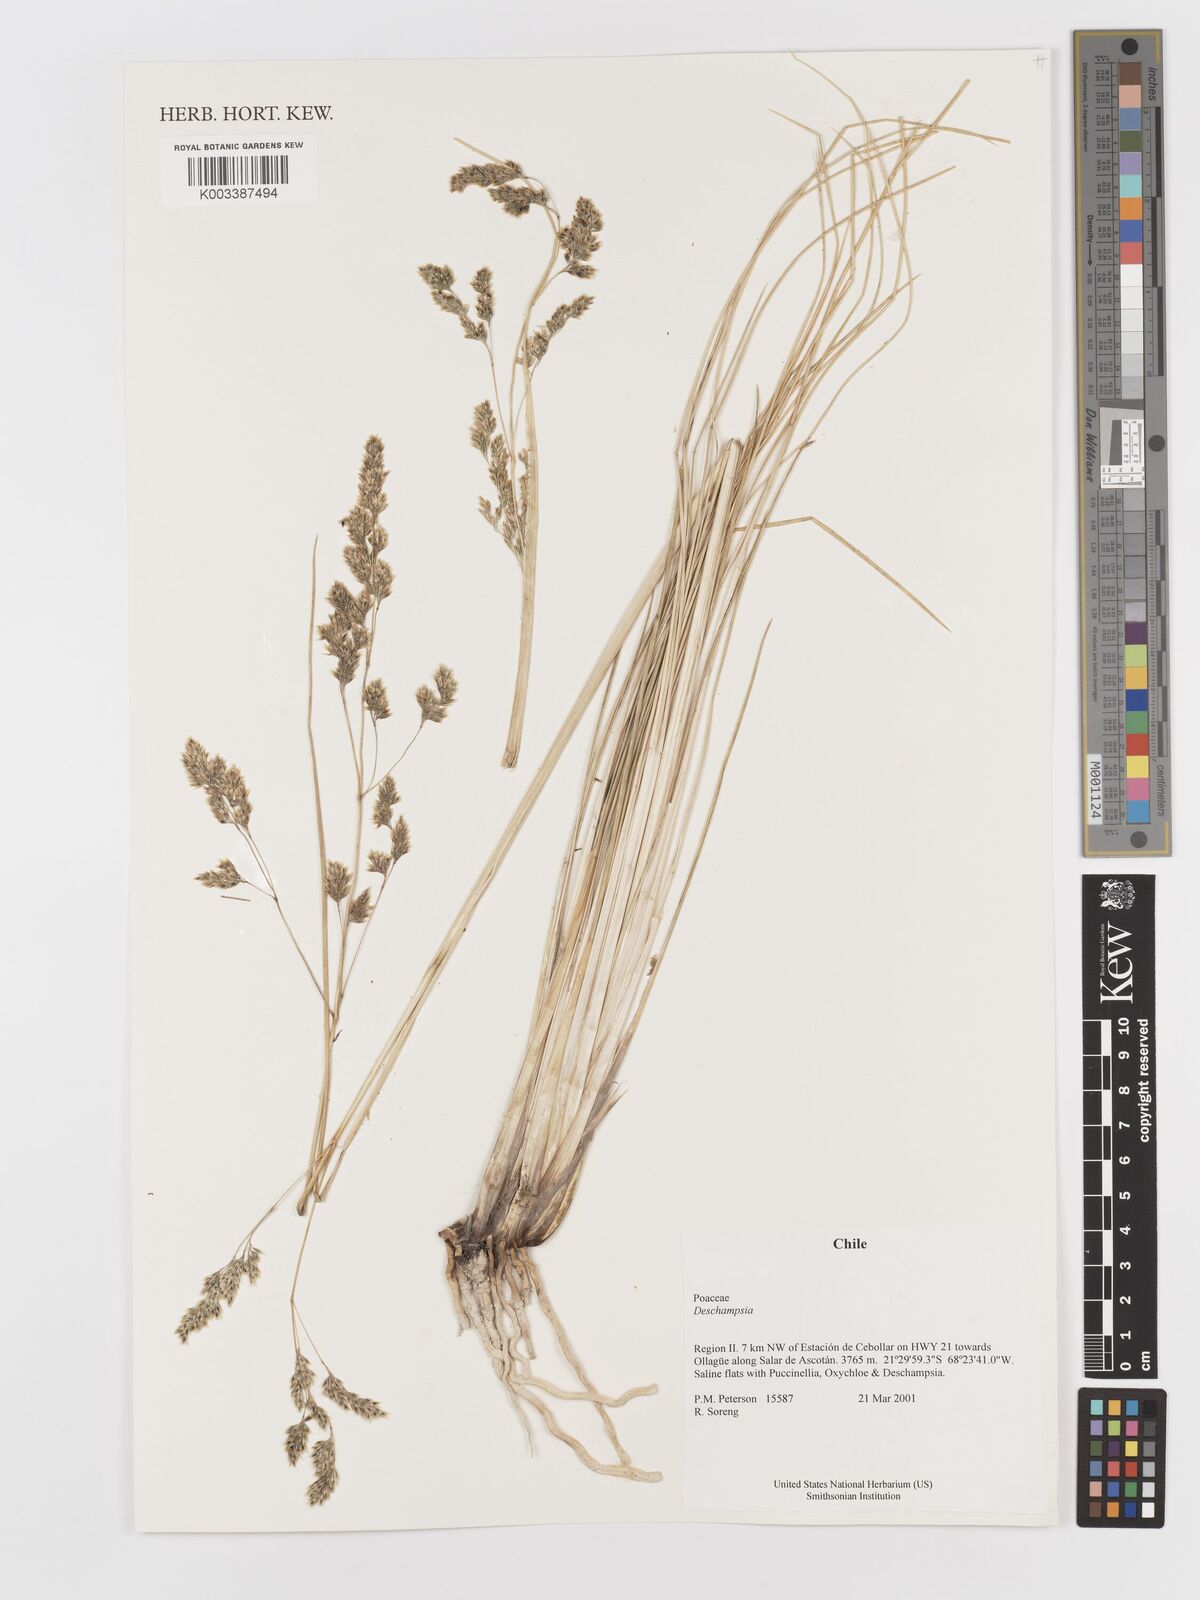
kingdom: Plantae
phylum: Tracheophyta
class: Liliopsida
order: Poales
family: Poaceae
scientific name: Poaceae
